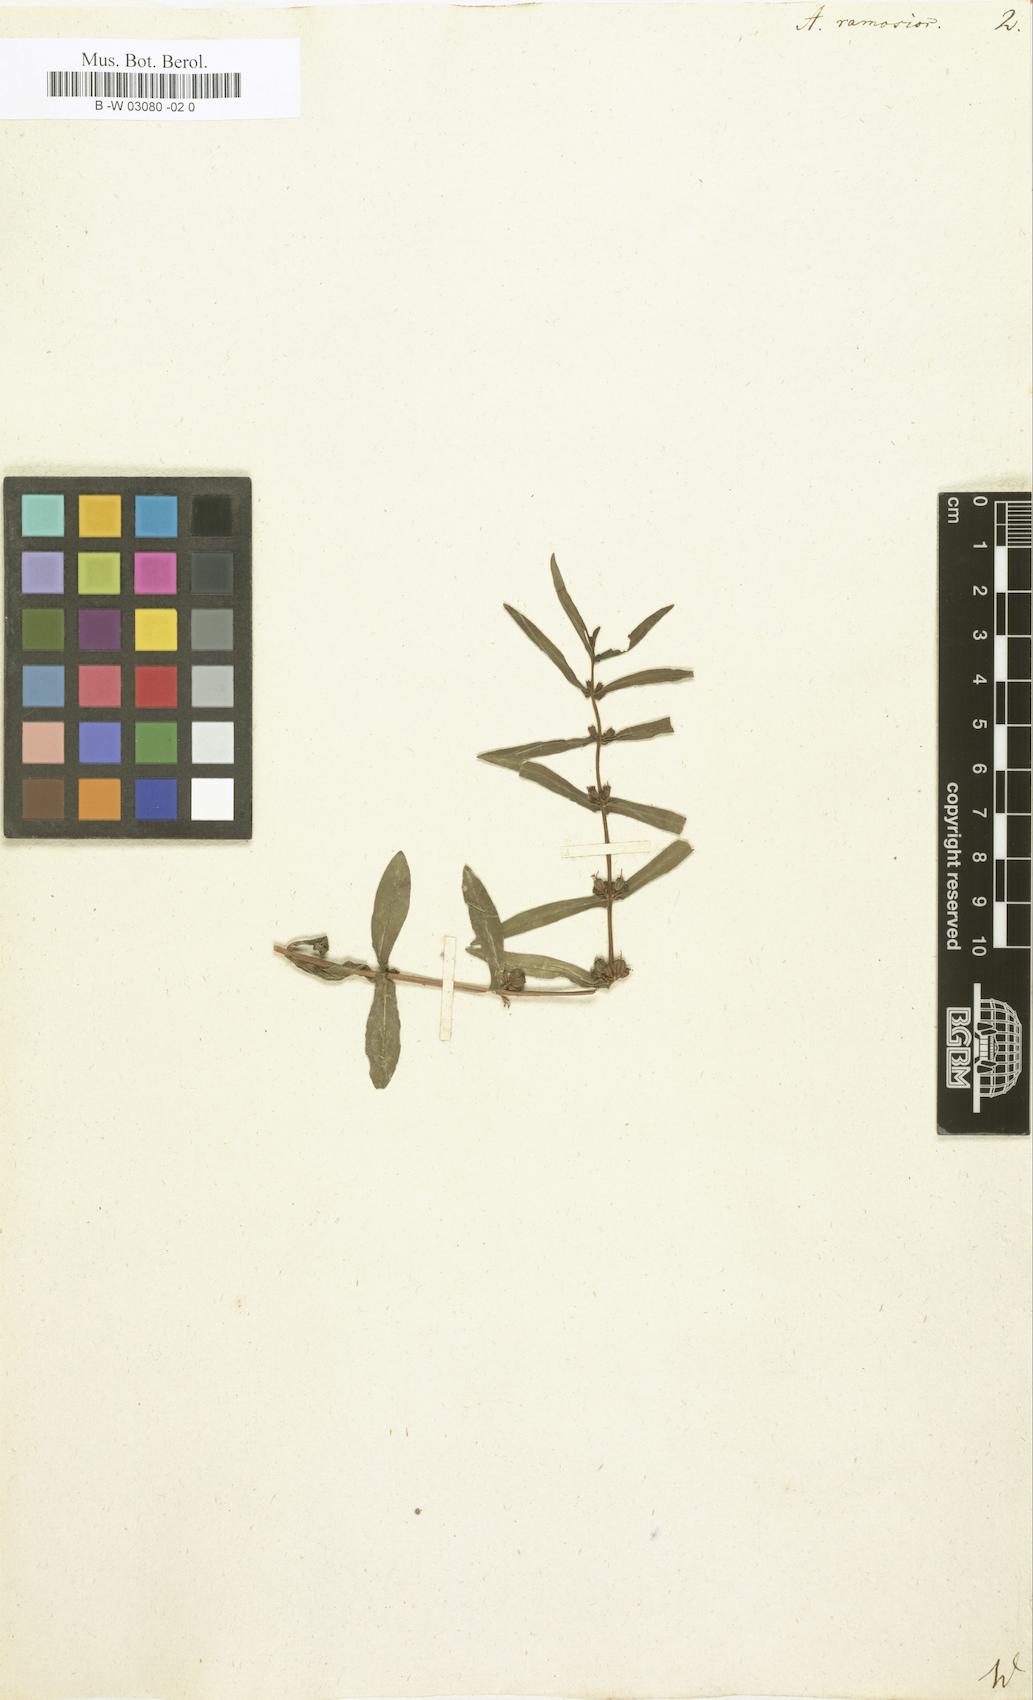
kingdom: Plantae
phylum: Tracheophyta
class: Magnoliopsida
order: Myrtales
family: Lythraceae
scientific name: Lythraceae
